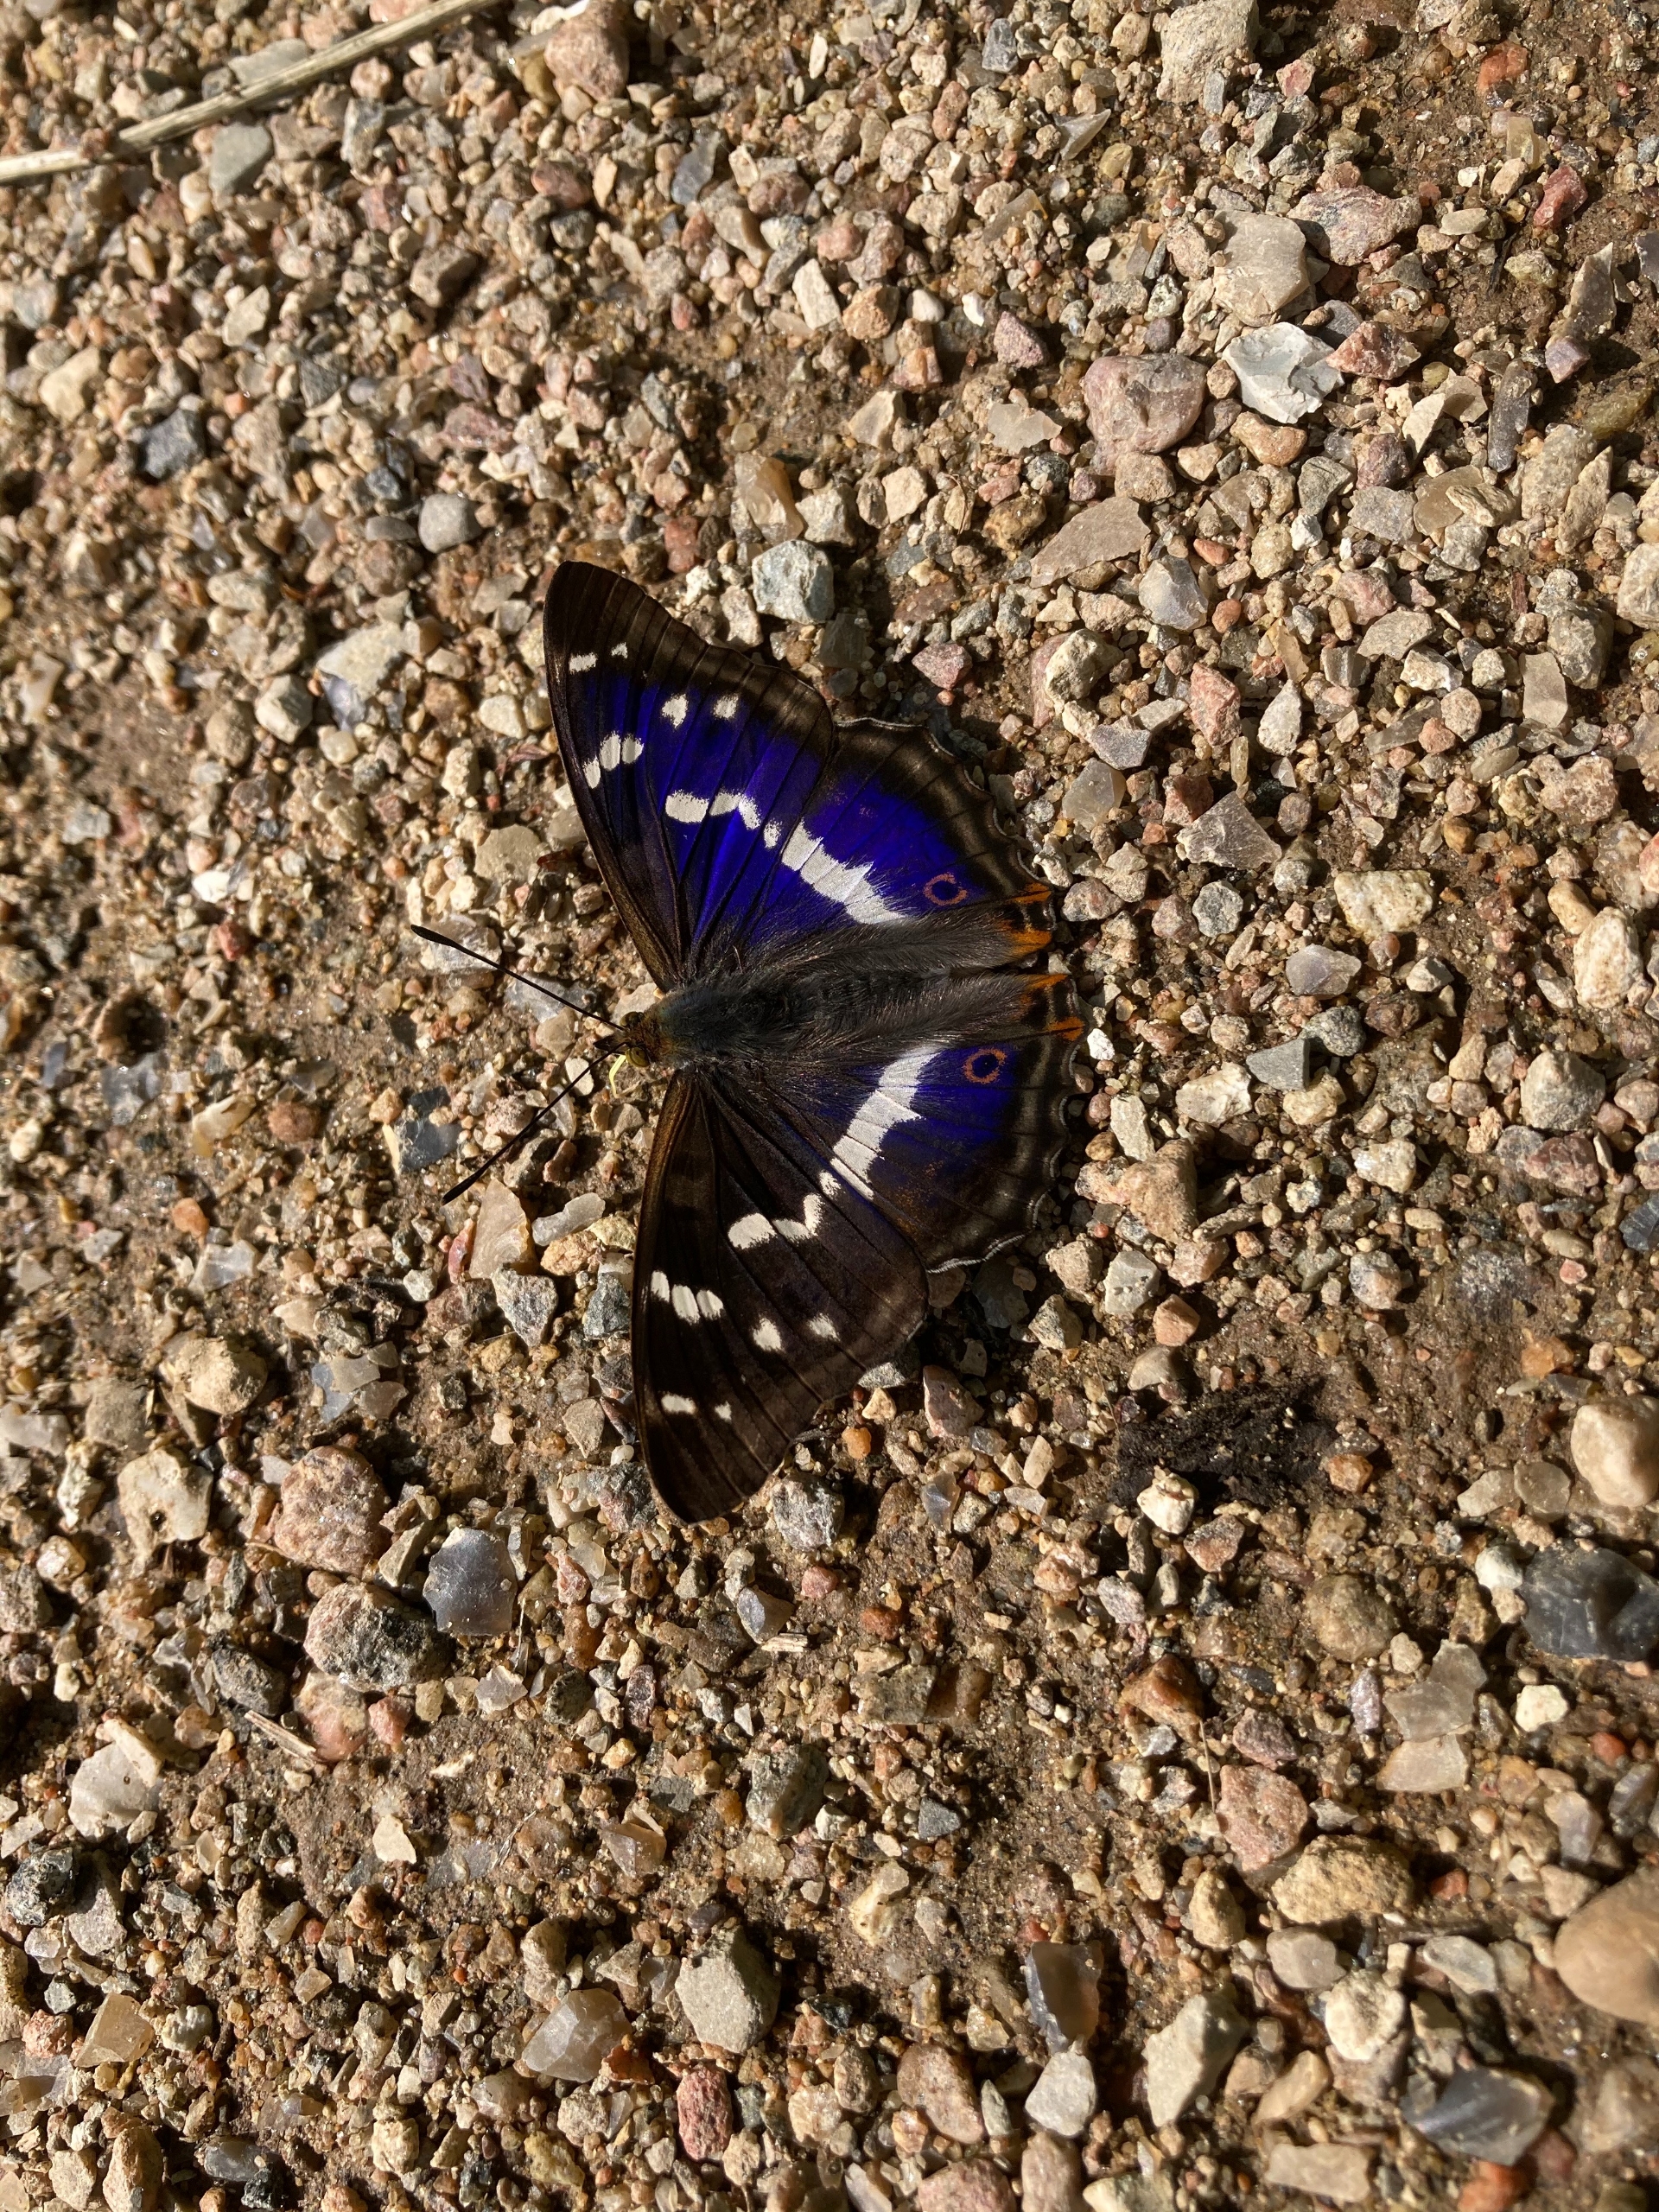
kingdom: Animalia
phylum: Arthropoda
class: Insecta
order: Lepidoptera
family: Nymphalidae
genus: Apatura
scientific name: Apatura iris
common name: Iris
